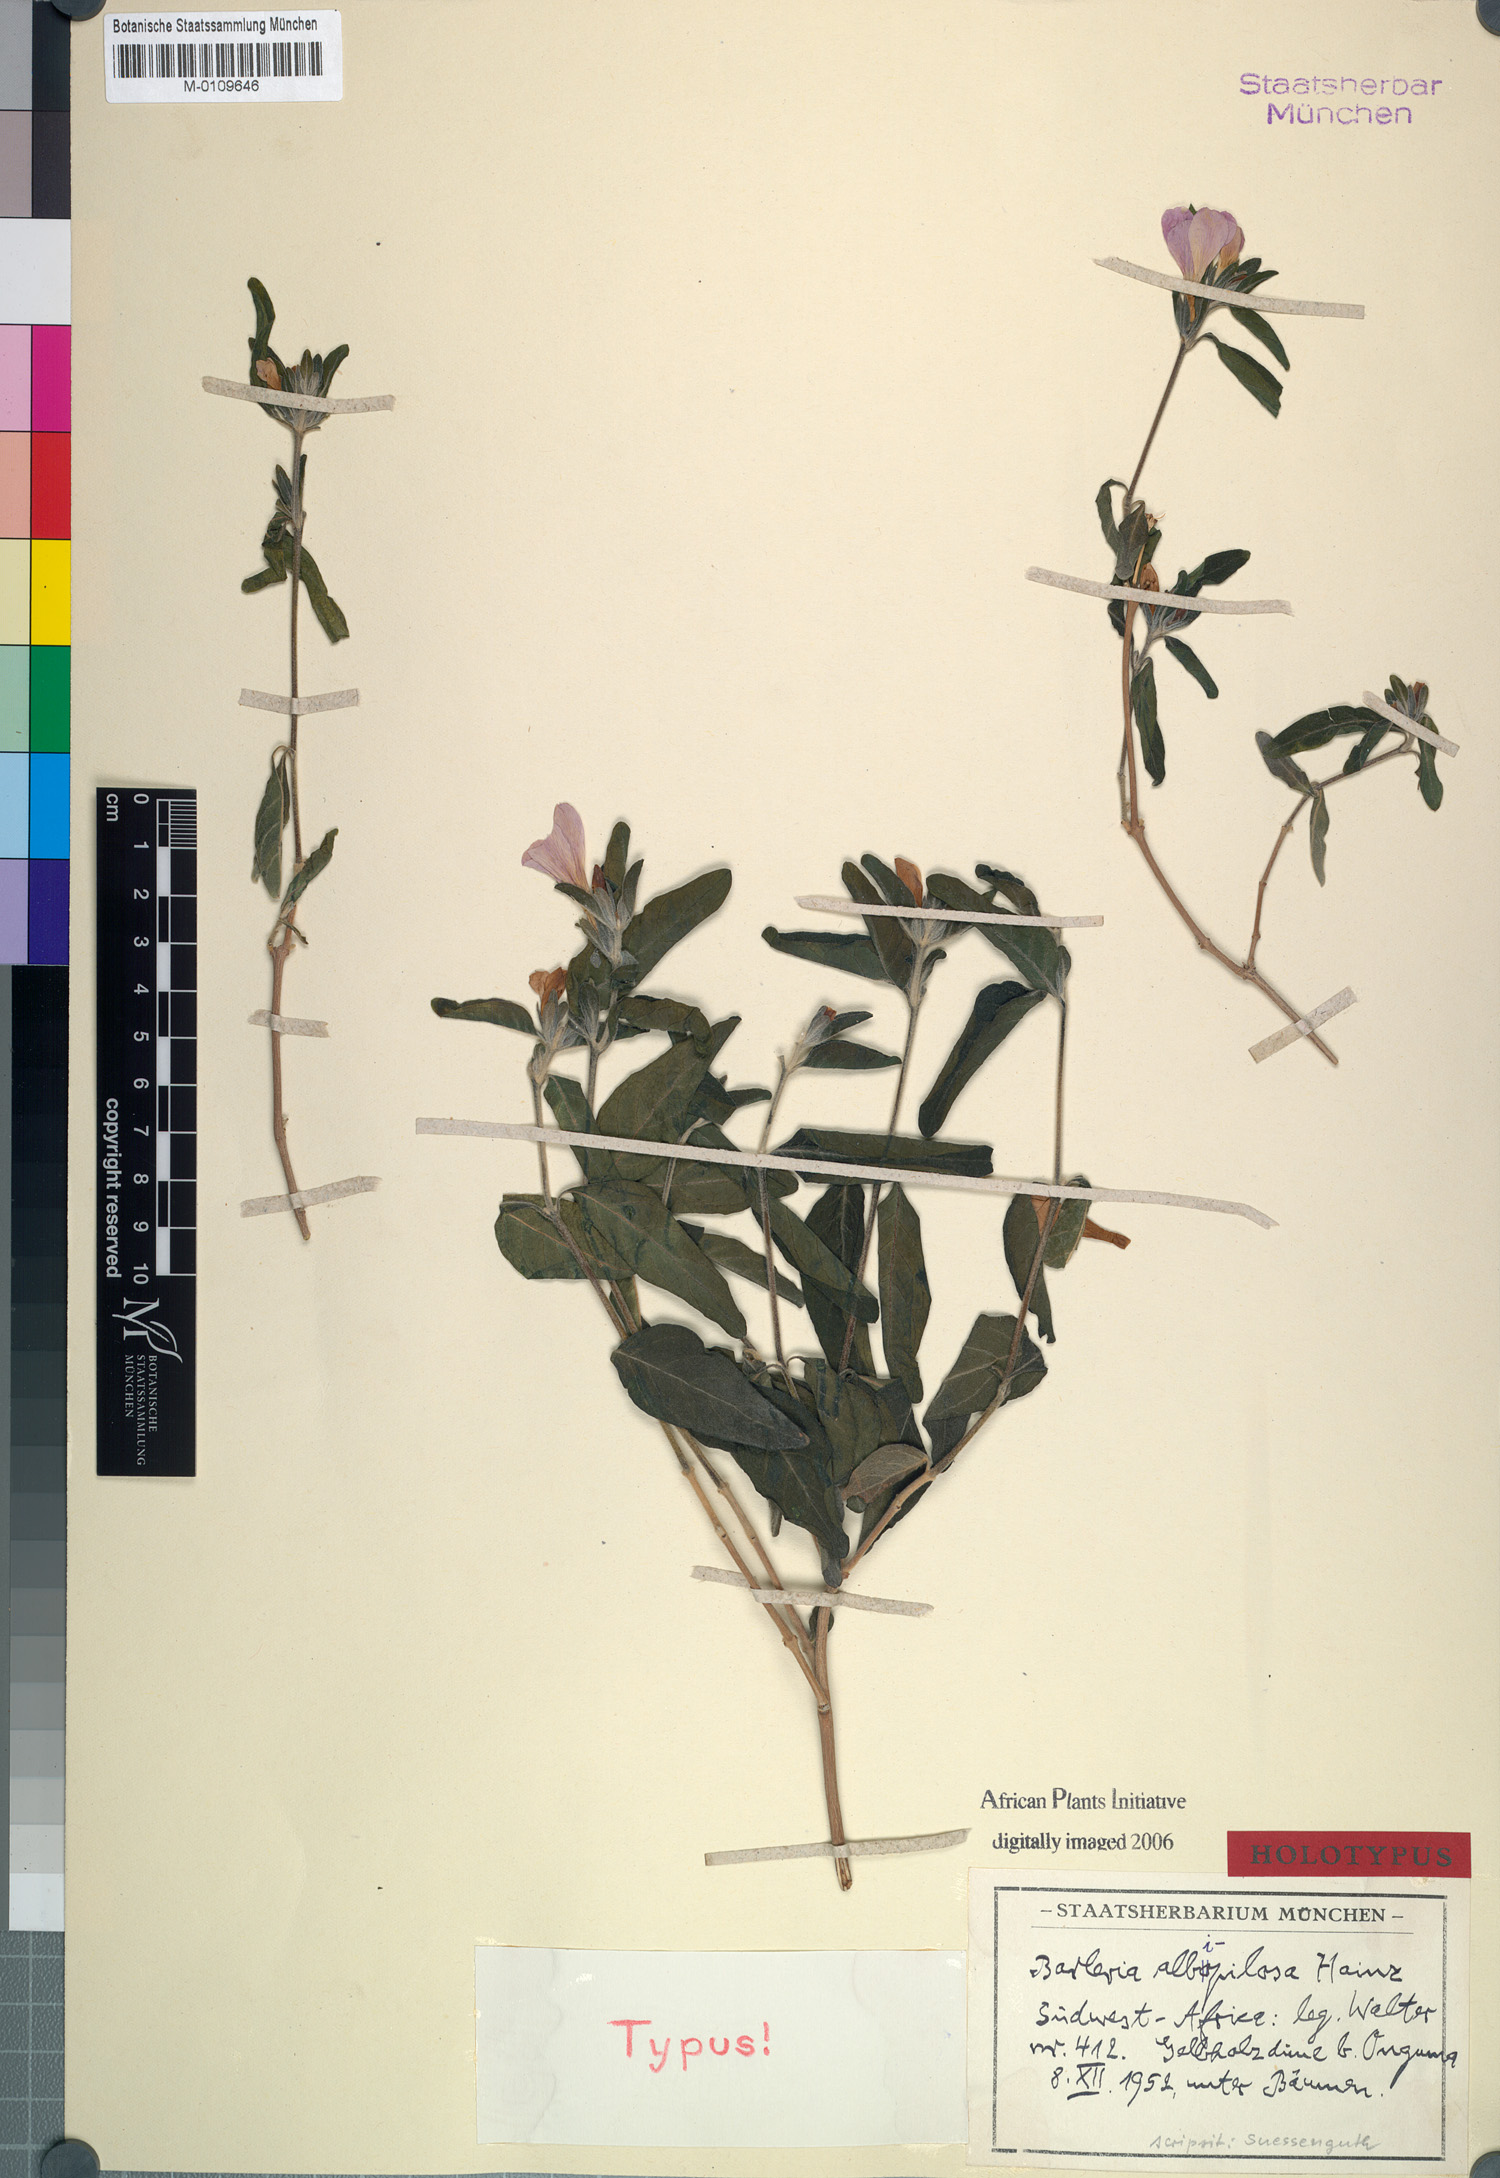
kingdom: Plantae
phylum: Tracheophyta
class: Magnoliopsida
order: Lamiales
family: Acanthaceae
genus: Barleria
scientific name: Barleria matopensis
